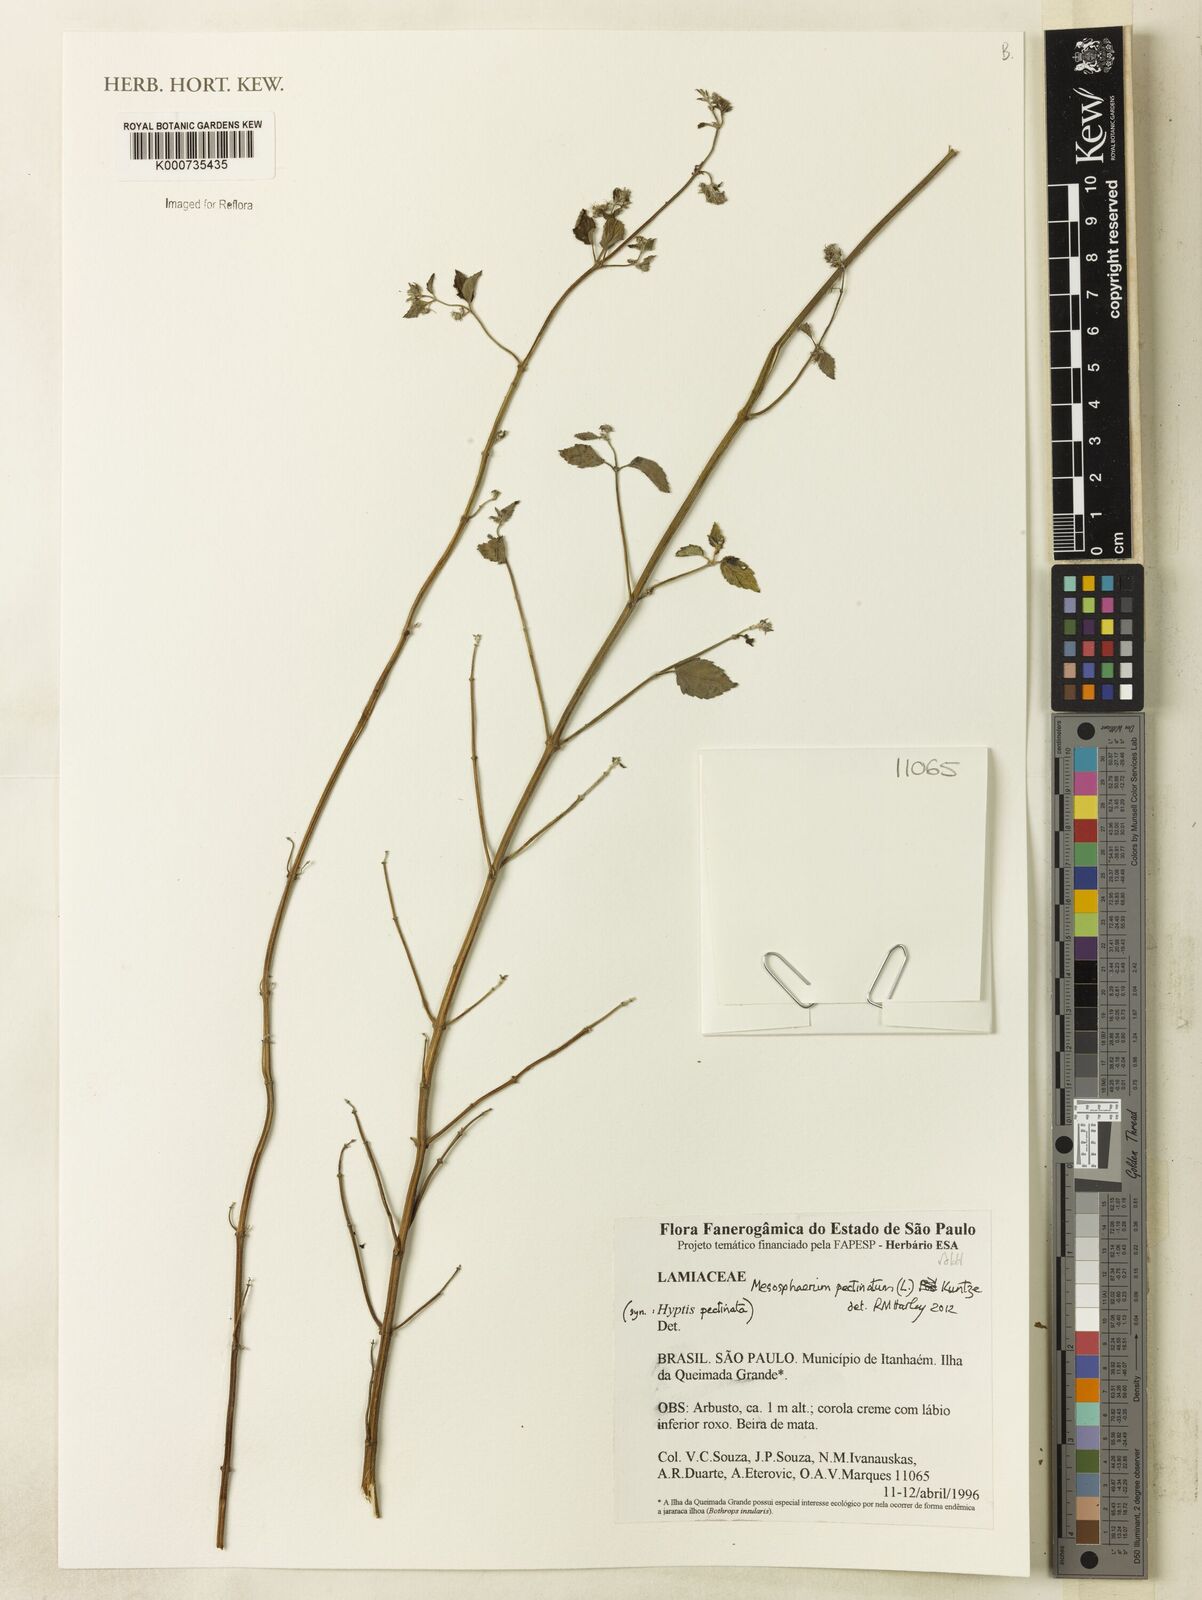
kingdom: Plantae
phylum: Tracheophyta
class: Magnoliopsida
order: Lamiales
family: Lamiaceae
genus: Mesosphaerum
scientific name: Mesosphaerum pectinatum
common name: Comb hyptis
